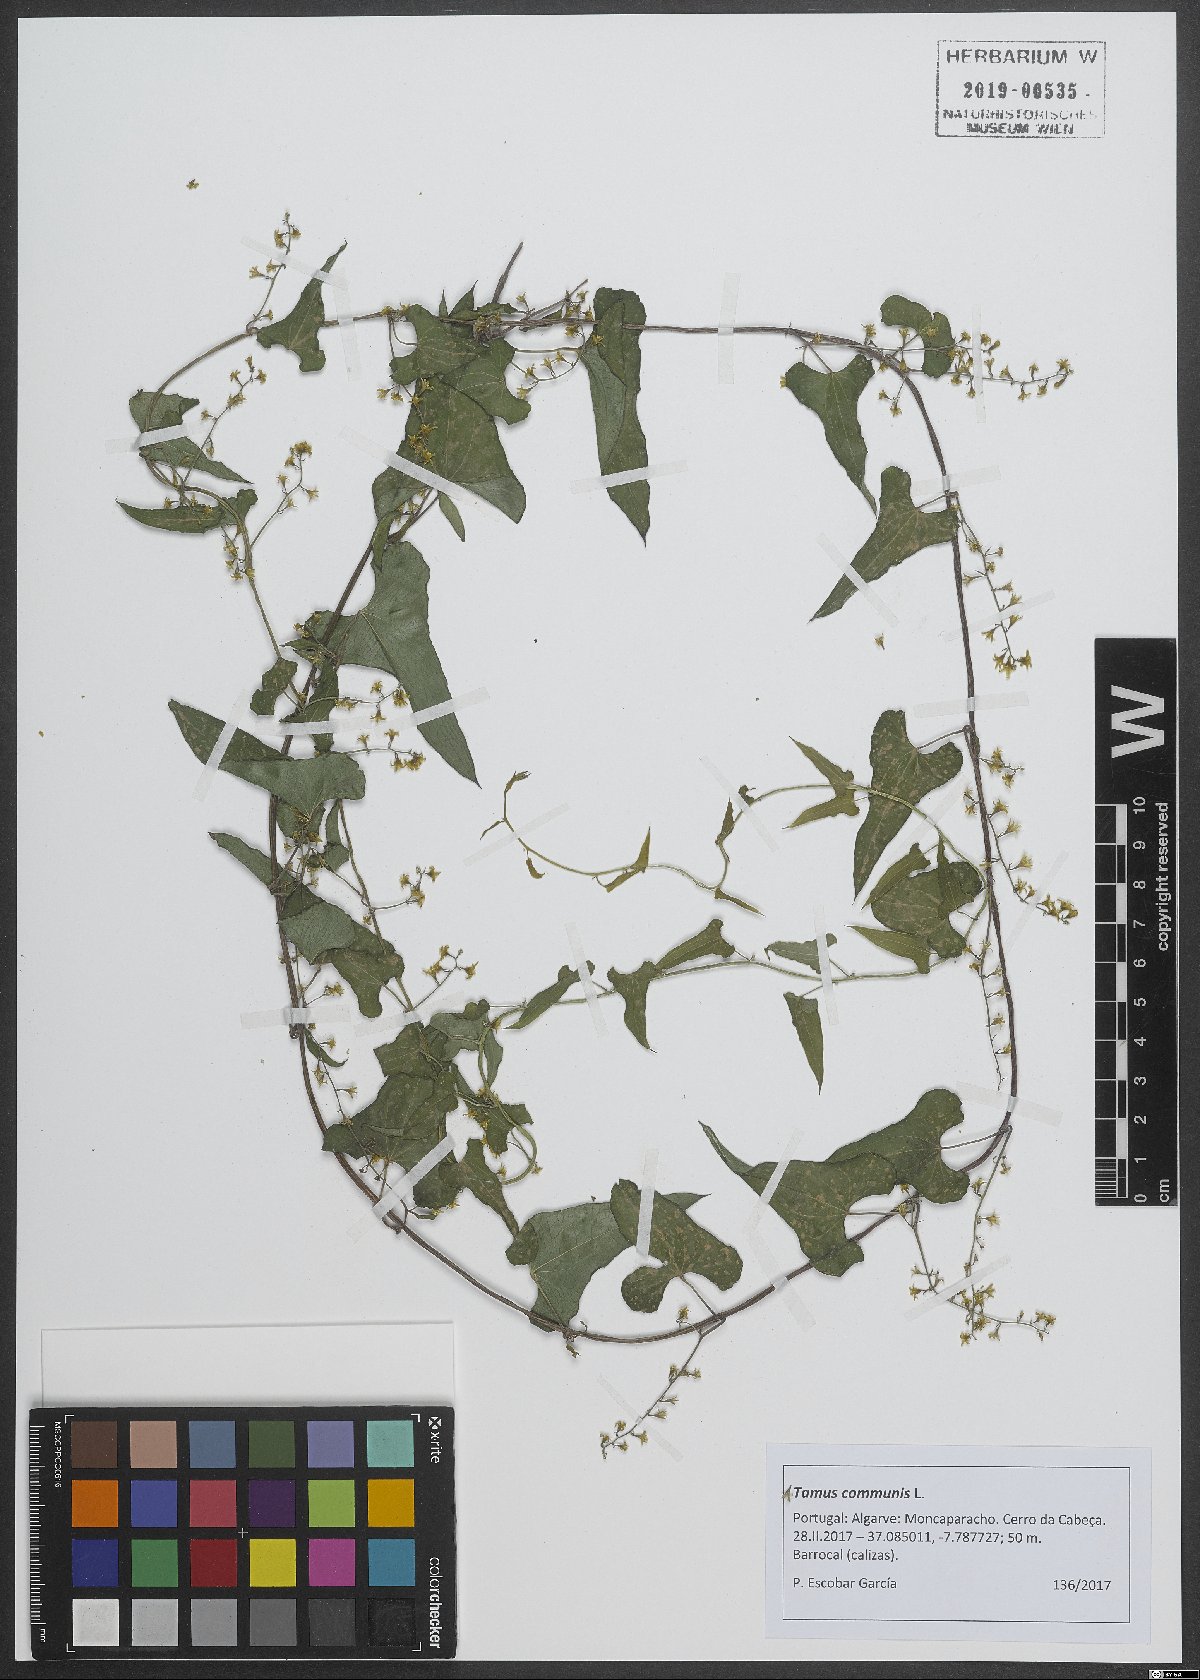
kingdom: Plantae
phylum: Tracheophyta
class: Liliopsida
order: Dioscoreales
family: Dioscoreaceae
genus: Dioscorea
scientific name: Dioscorea communis
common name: Black-bindweed
